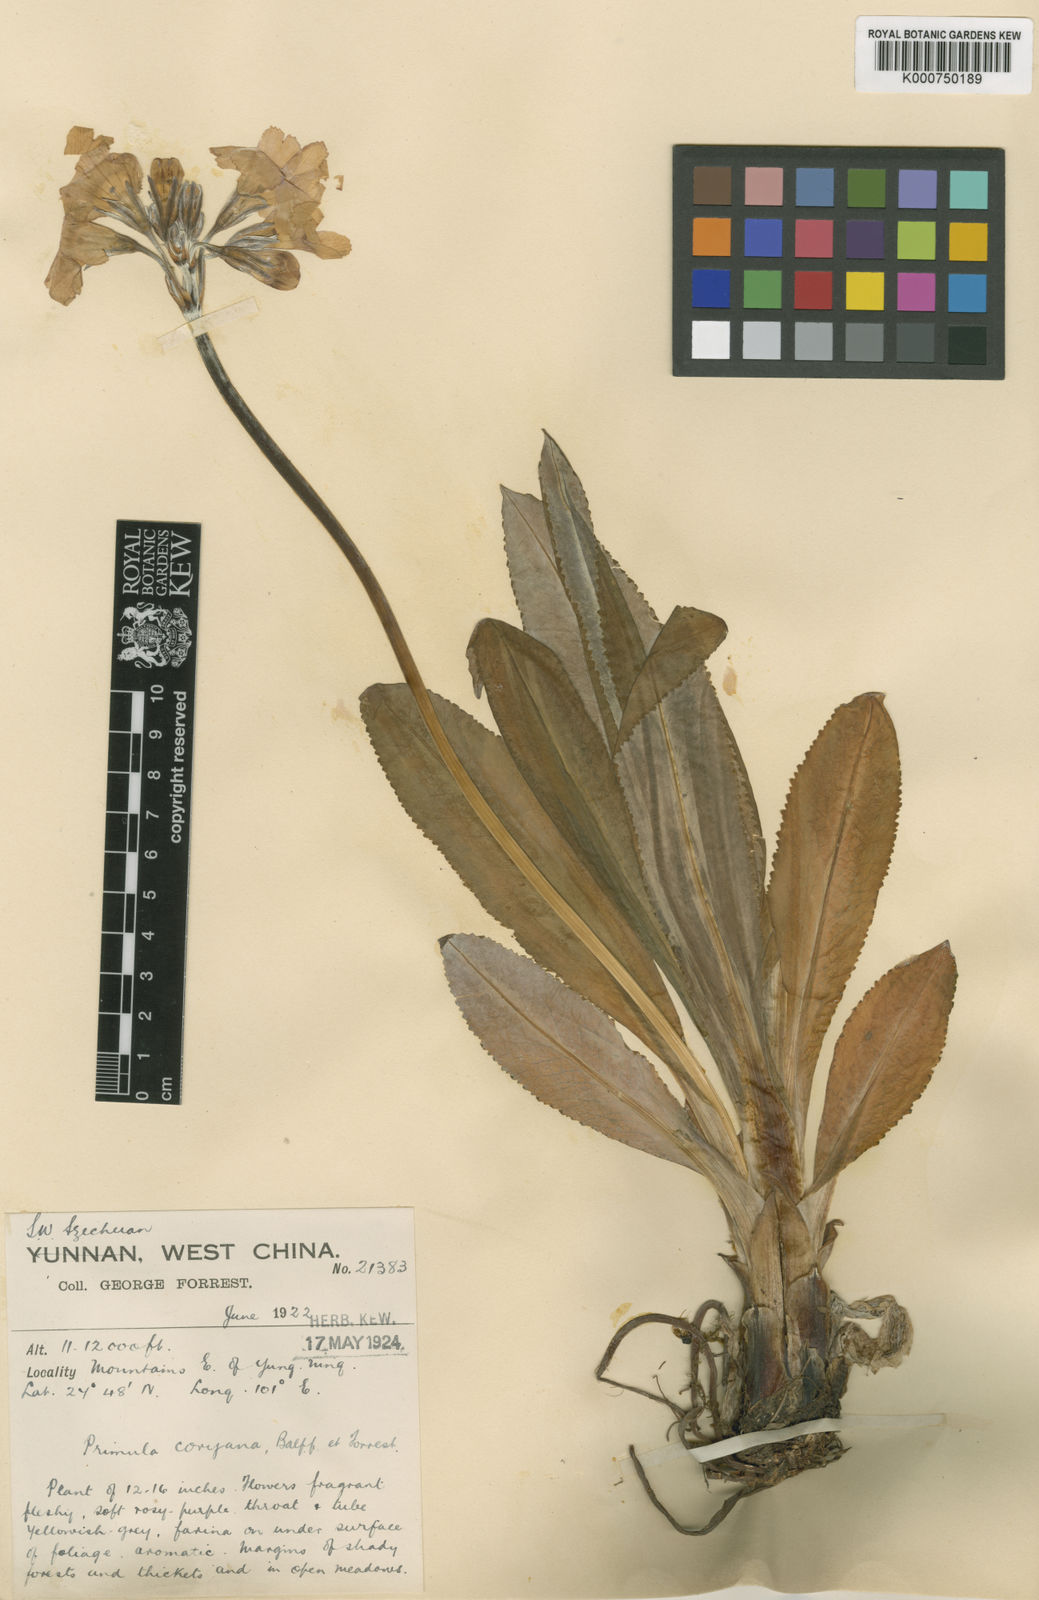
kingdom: Plantae
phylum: Tracheophyta
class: Magnoliopsida
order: Ericales
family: Primulaceae
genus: Primula
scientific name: Primula boreiocalliantha
